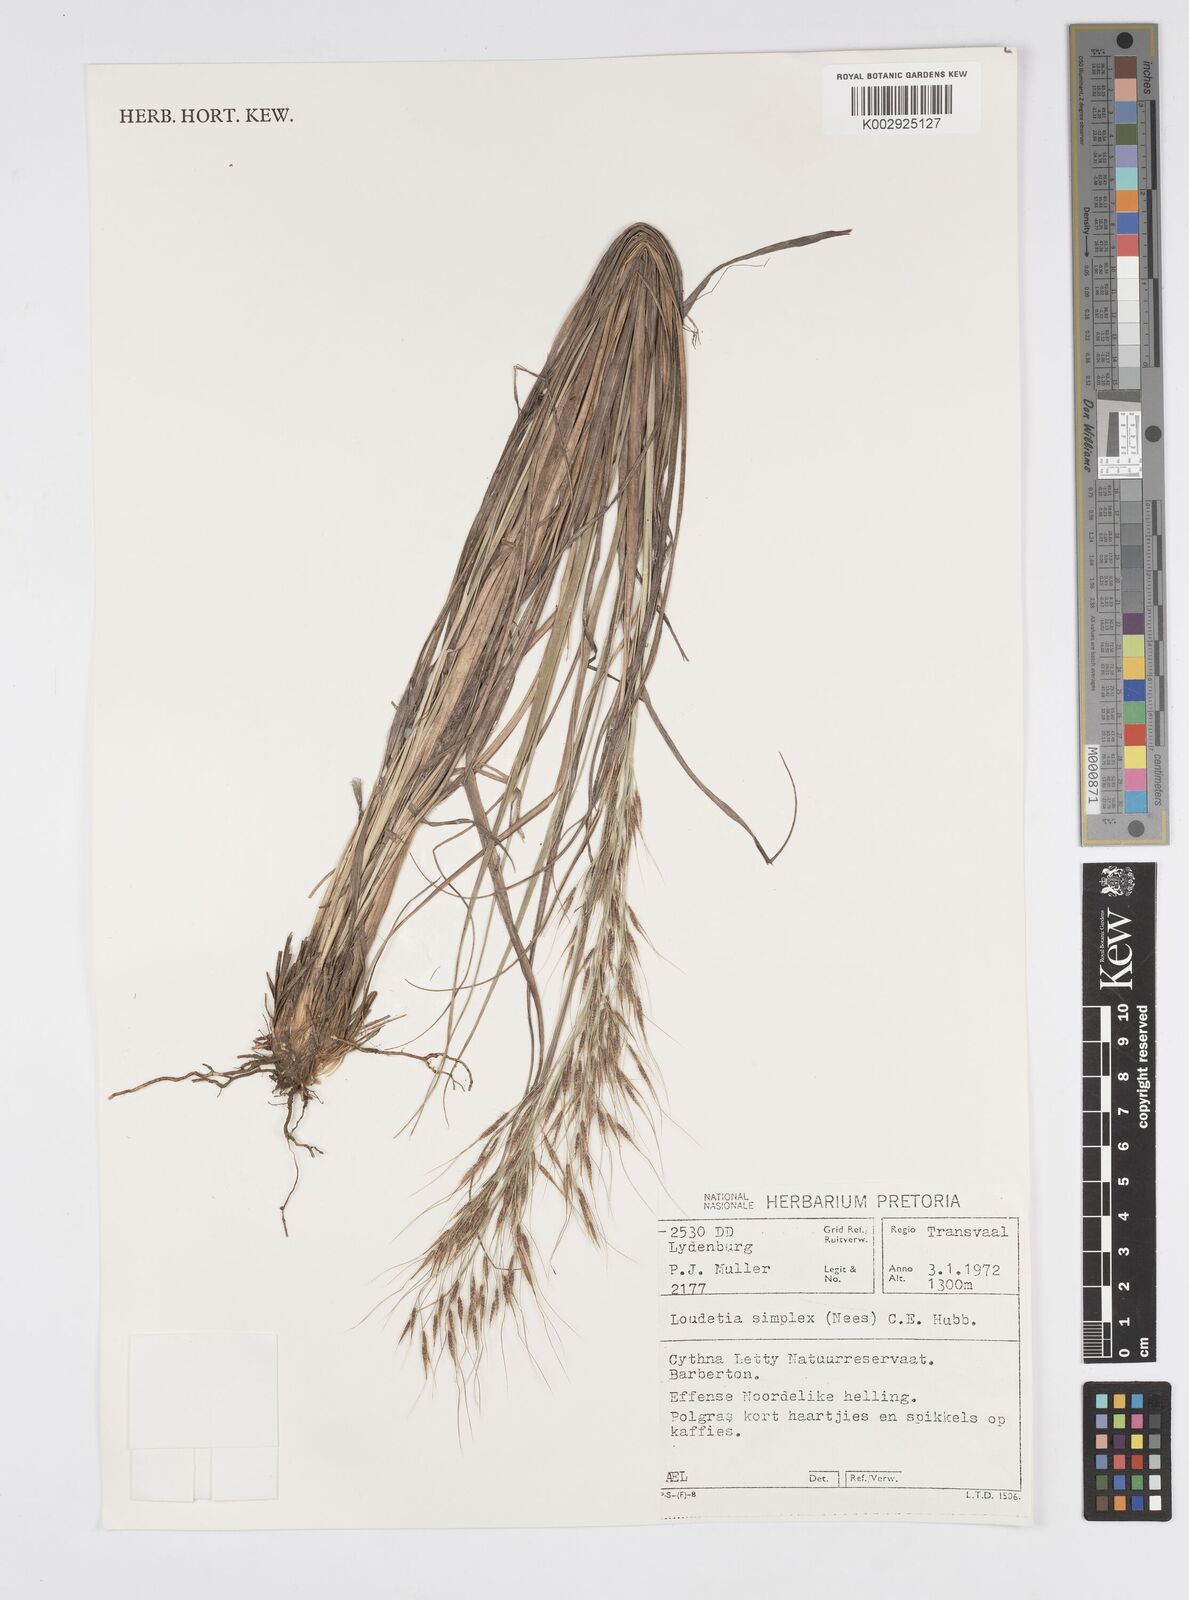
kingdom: Plantae
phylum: Tracheophyta
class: Liliopsida
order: Poales
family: Poaceae
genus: Loudetia
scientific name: Loudetia simplex
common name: Common russet grass
